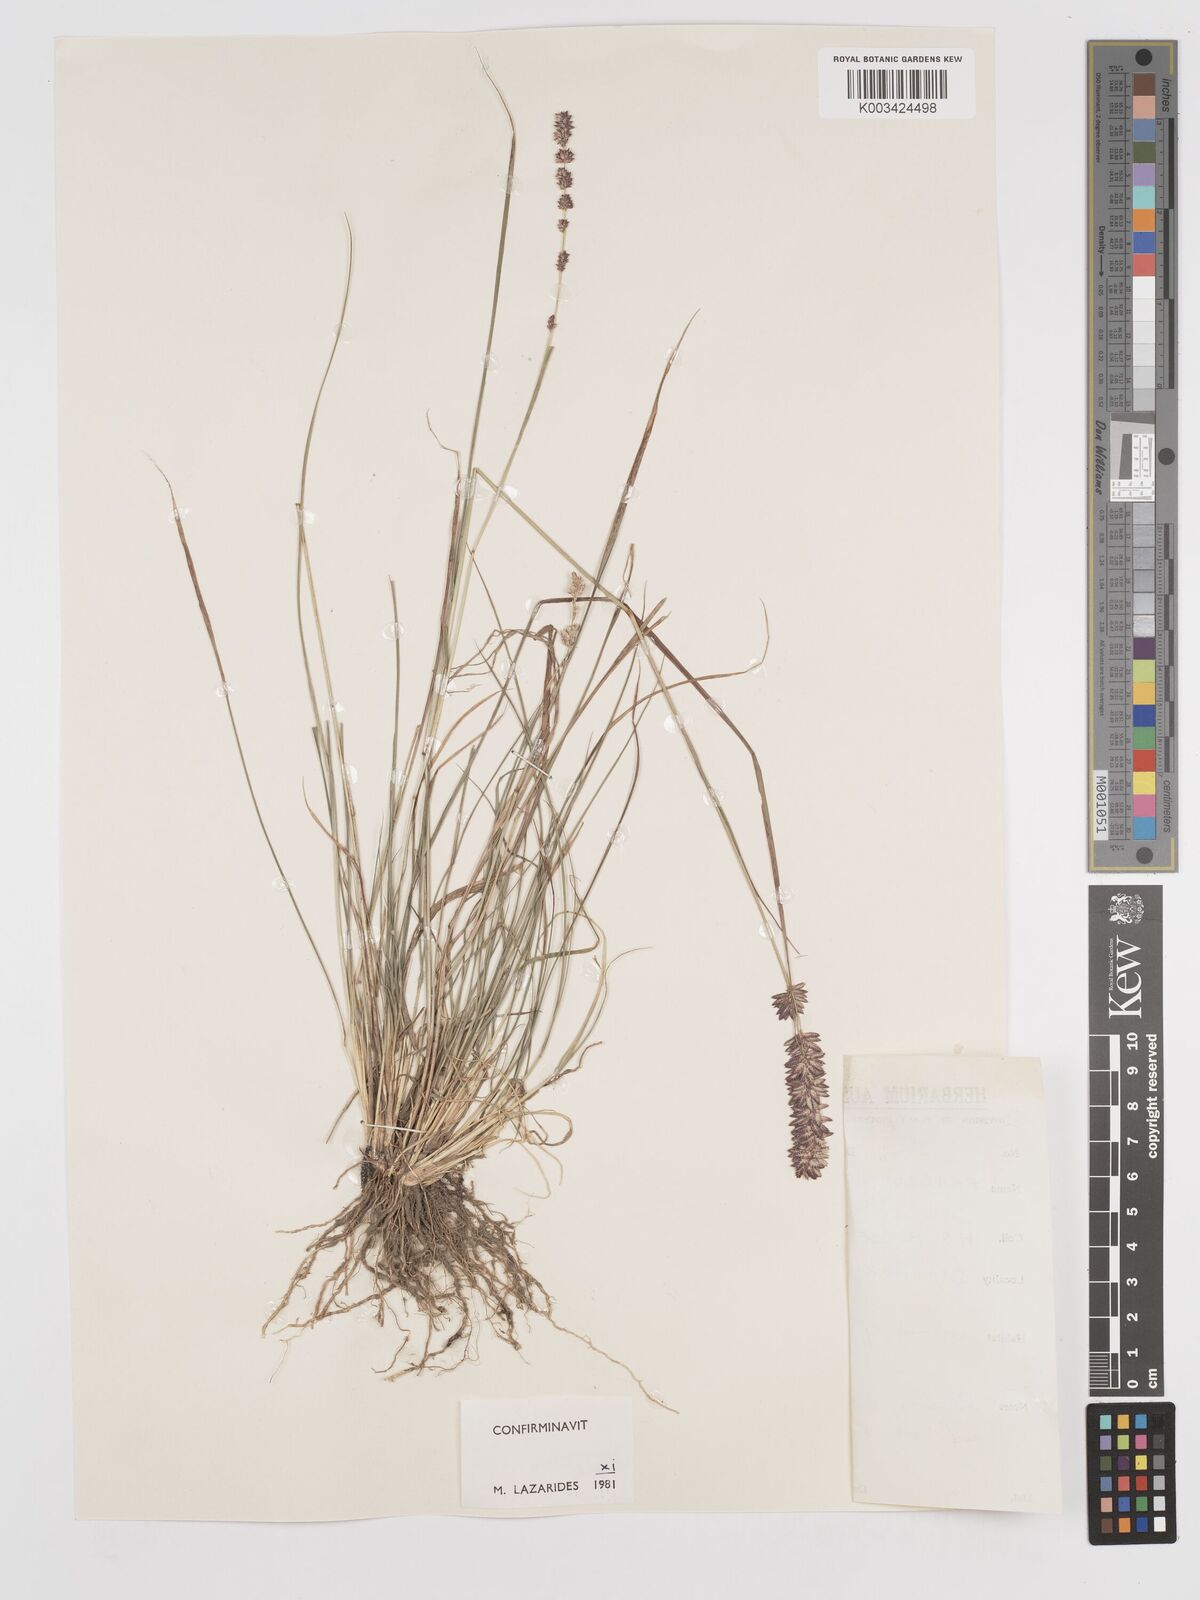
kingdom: Plantae
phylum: Tracheophyta
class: Liliopsida
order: Poales
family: Poaceae
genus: Eragrostis
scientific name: Eragrostis elongata
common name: Long lovegrass
